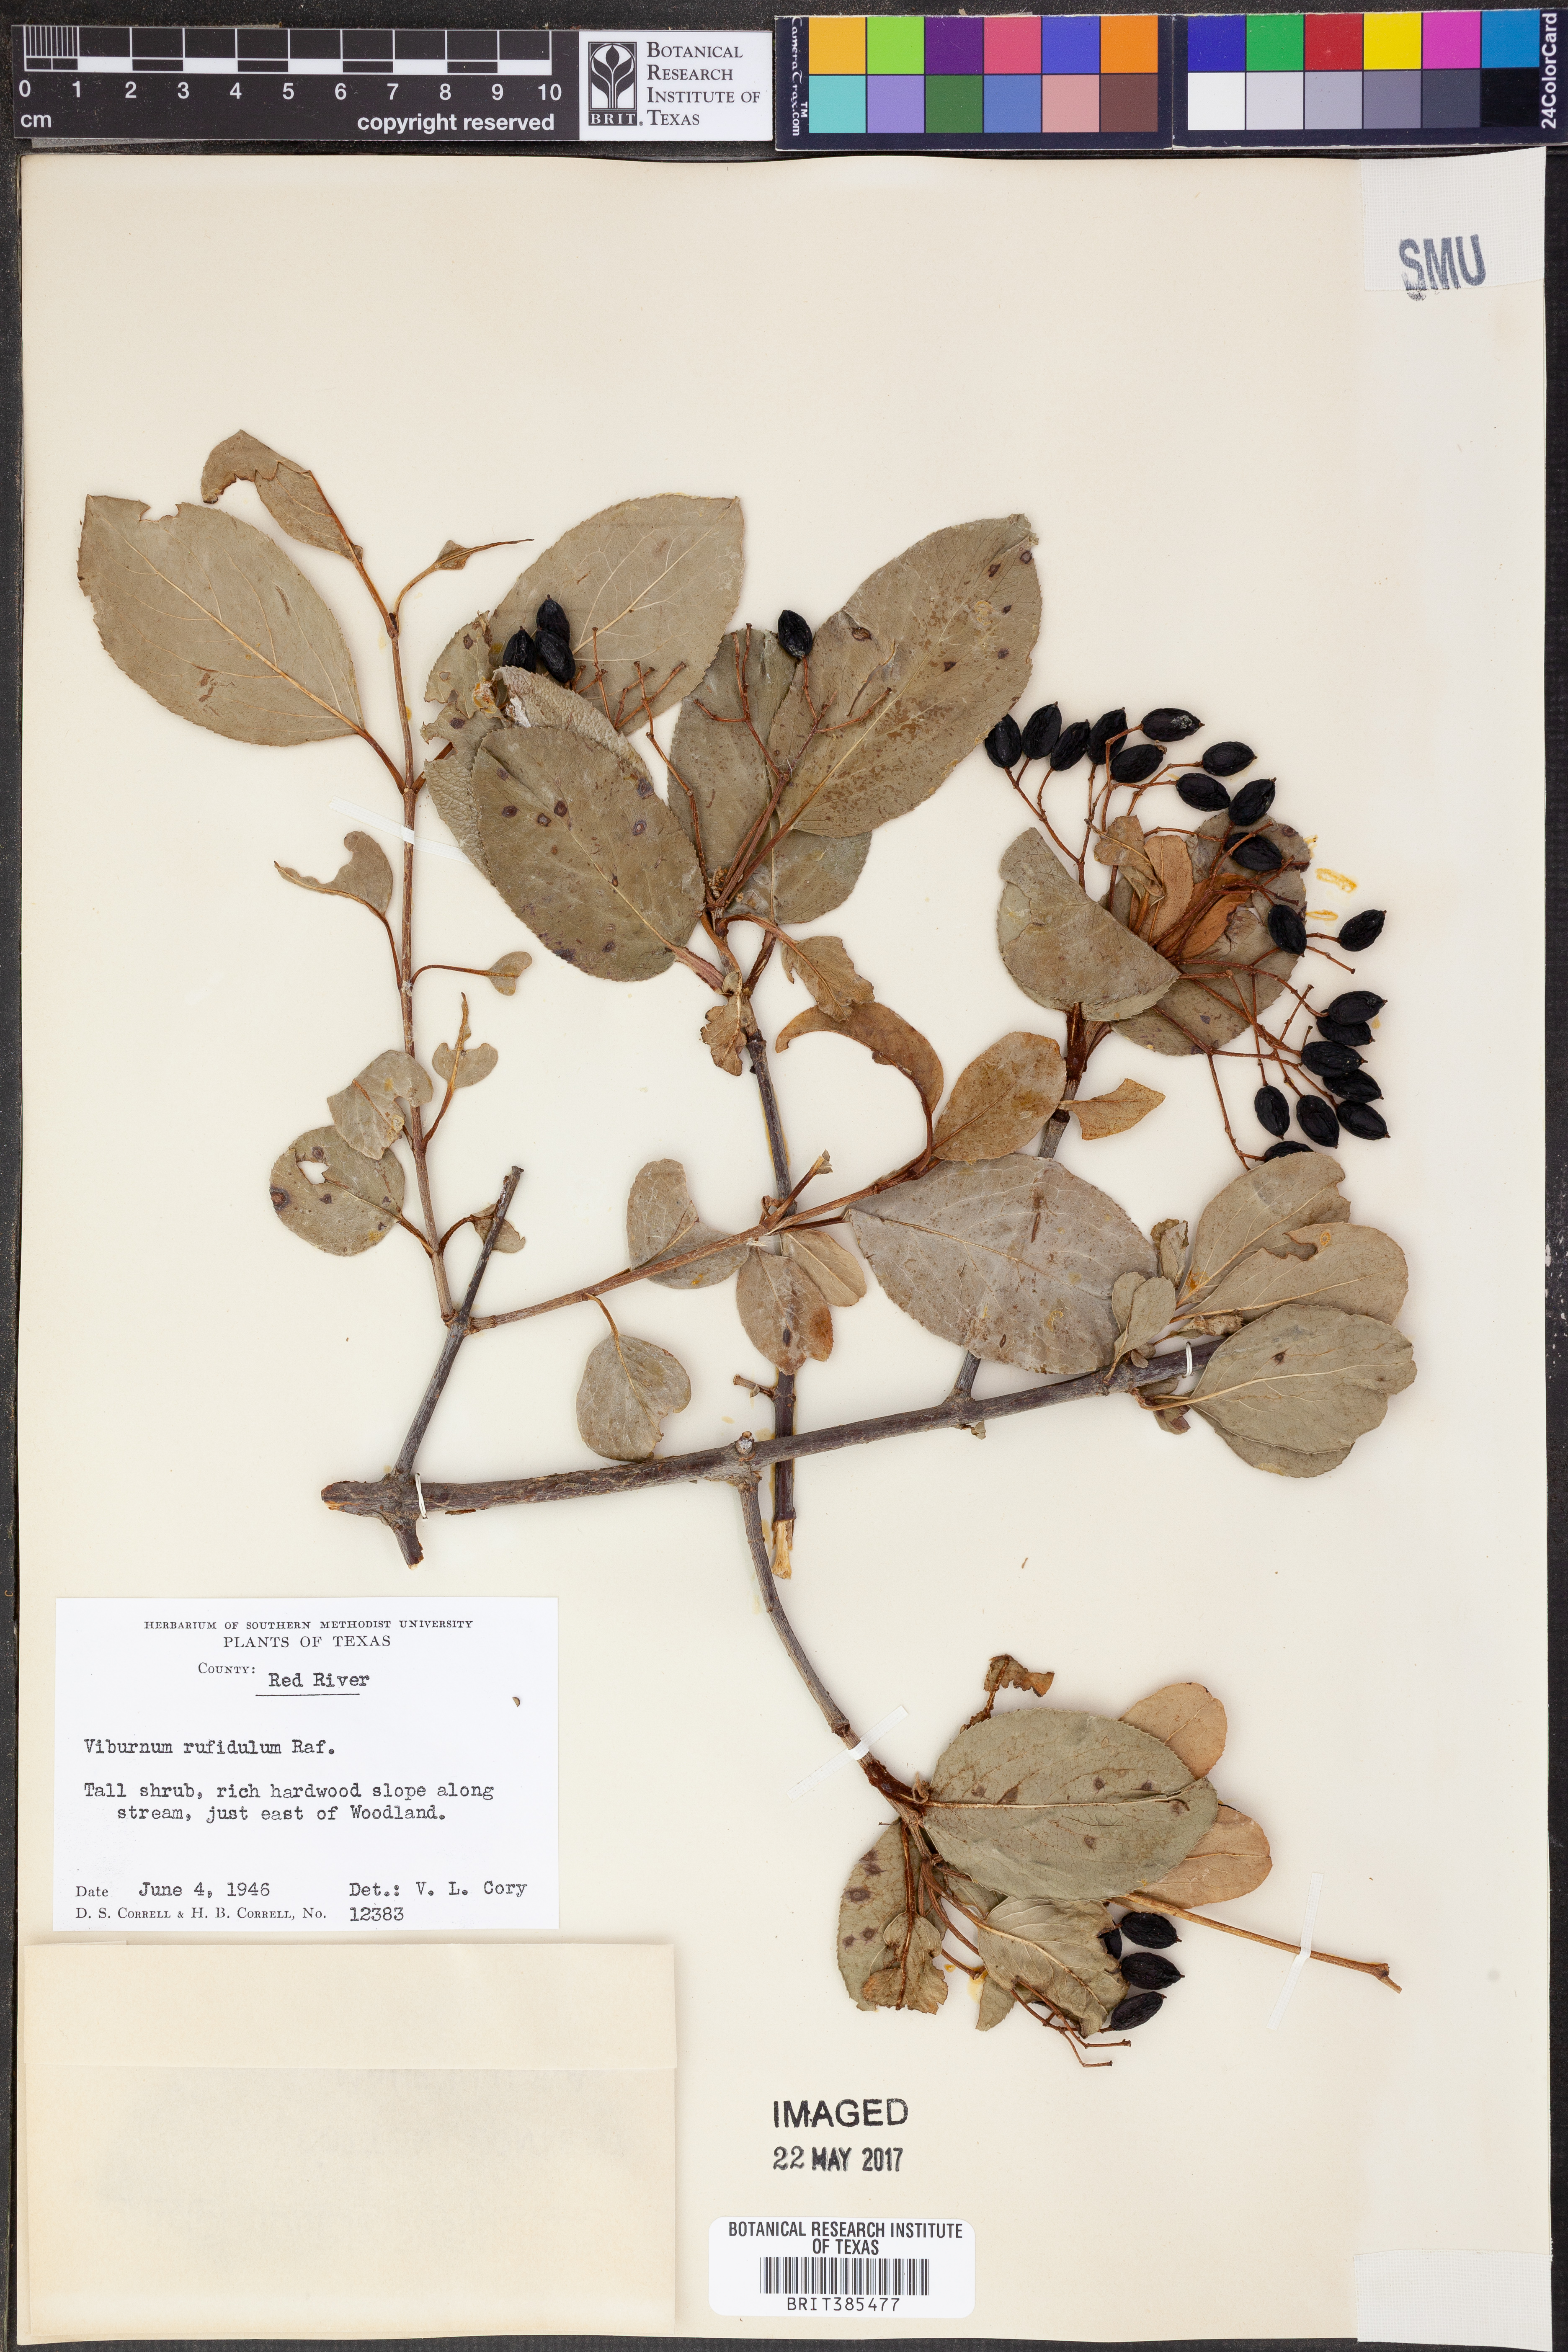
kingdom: Plantae
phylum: Tracheophyta
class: Magnoliopsida
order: Dipsacales
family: Viburnaceae
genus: Viburnum
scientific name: Viburnum rufidulum
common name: Blue haw
